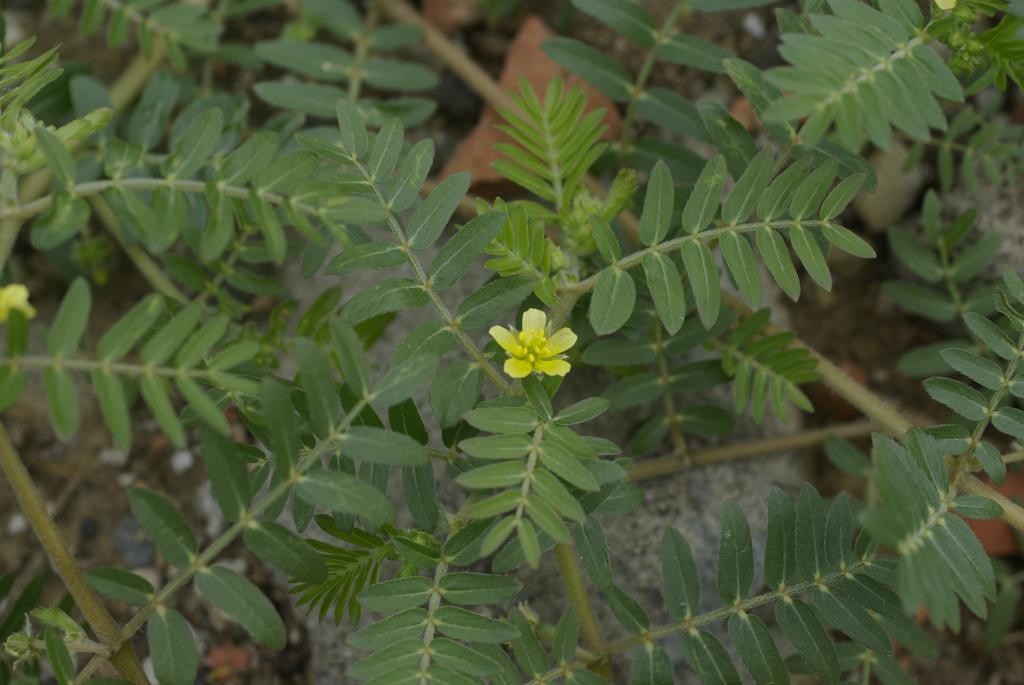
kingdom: Plantae
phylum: Tracheophyta
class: Magnoliopsida
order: Zygophyllales
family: Zygophyllaceae
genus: Tribulus
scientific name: Tribulus terrestris
